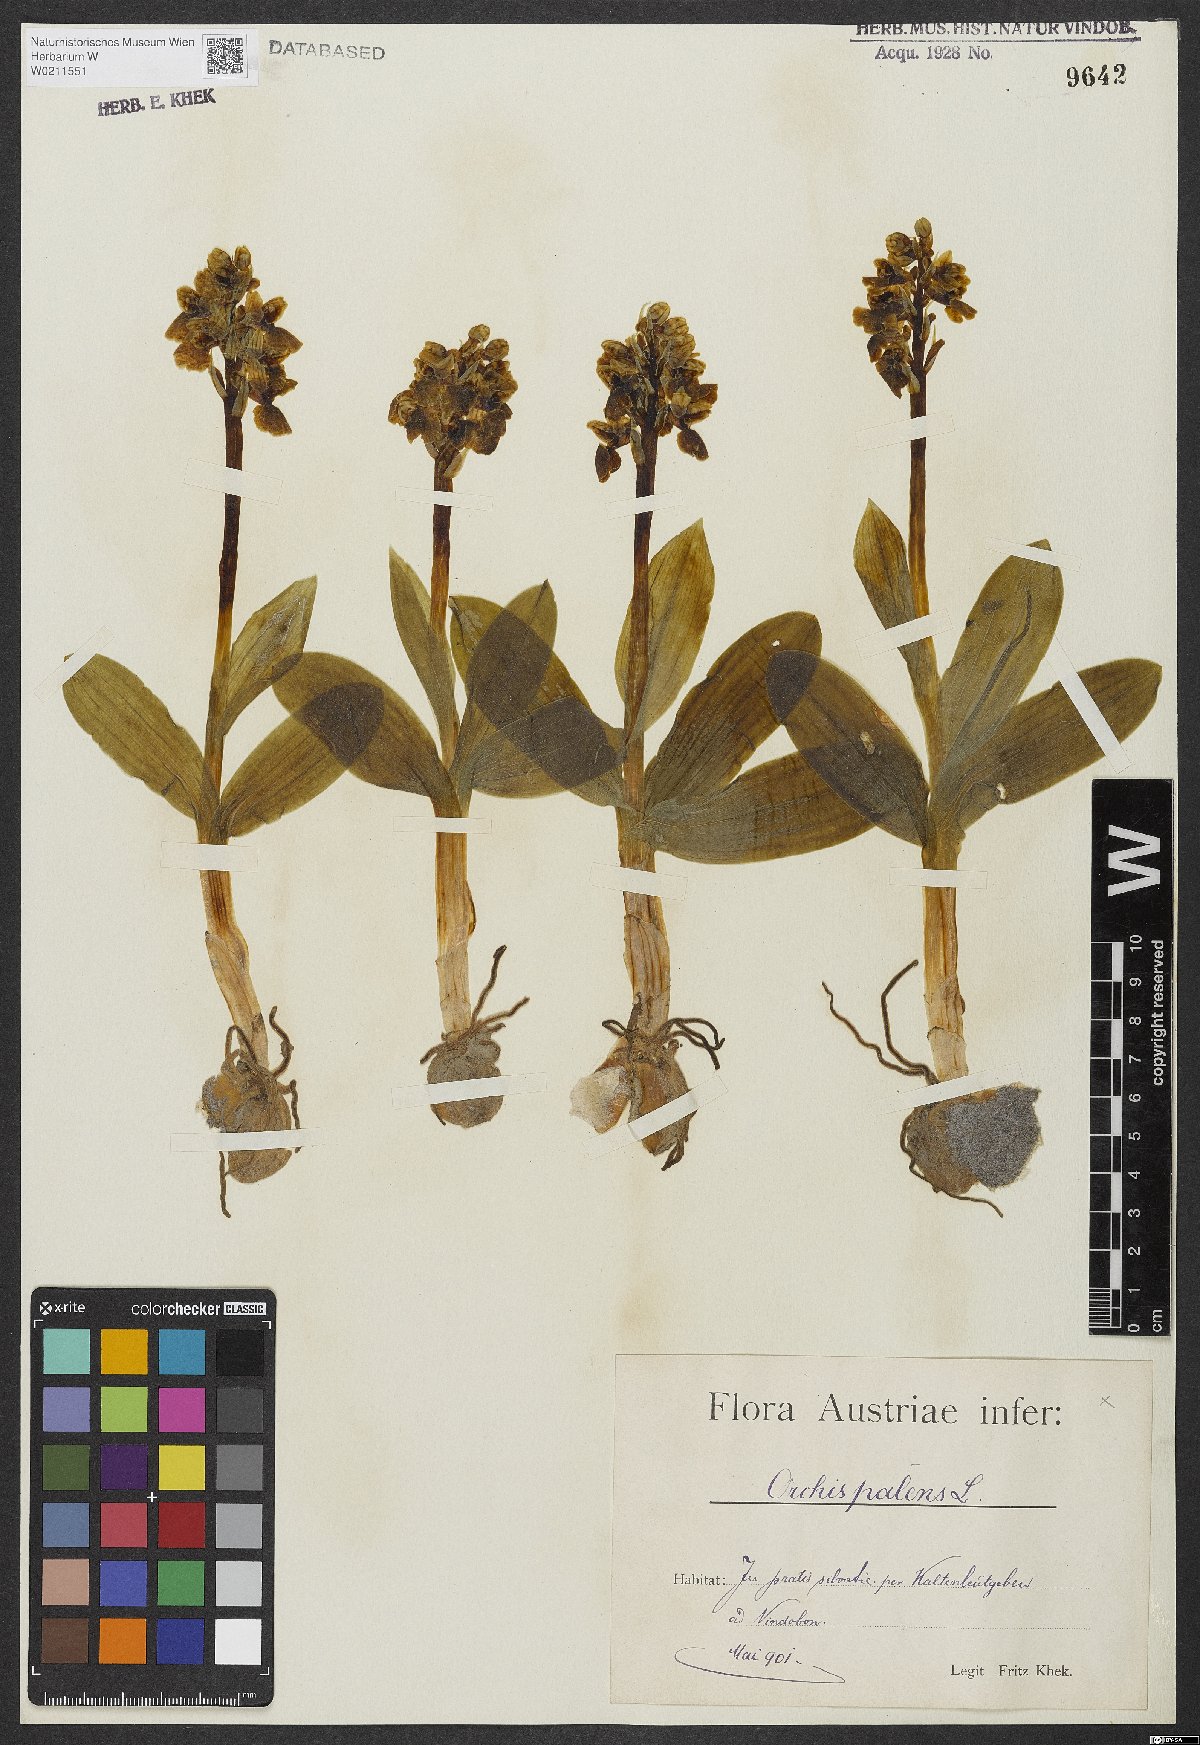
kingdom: Plantae
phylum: Tracheophyta
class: Liliopsida
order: Asparagales
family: Orchidaceae
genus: Orchis
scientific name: Orchis pallens
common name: Pale-flowered orchid
